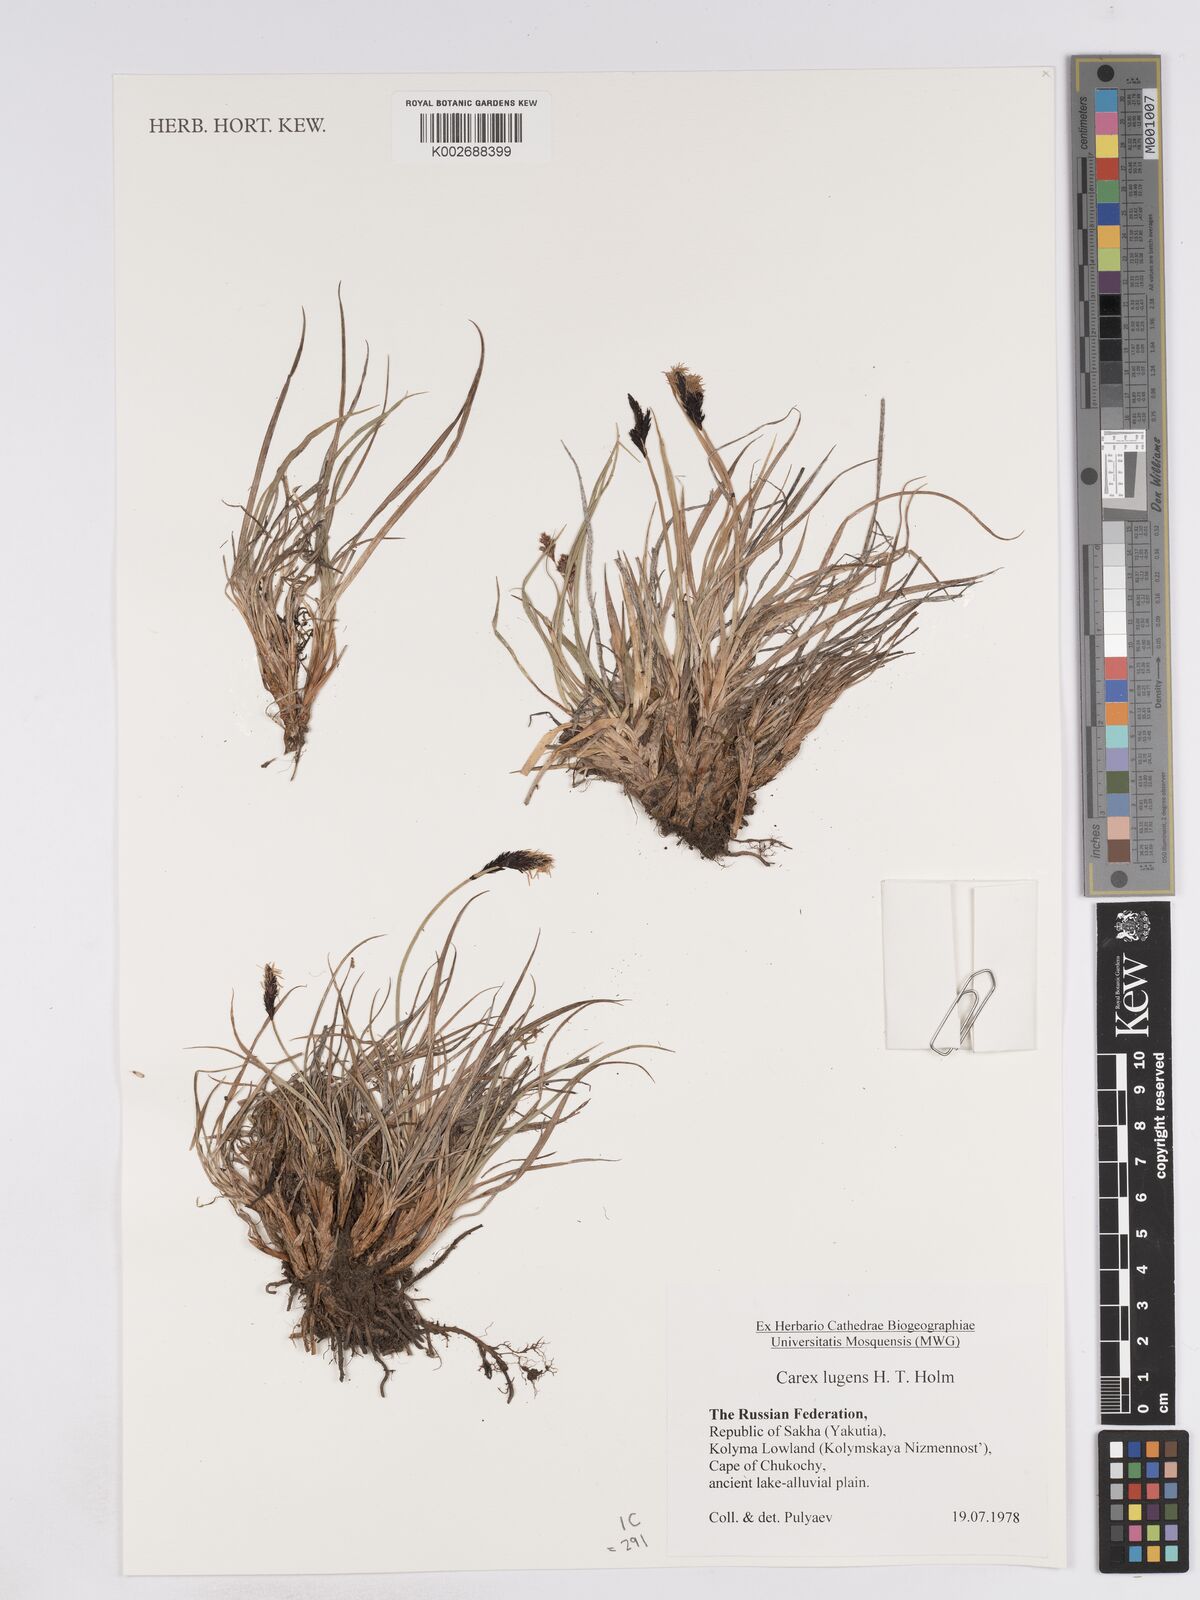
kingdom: Plantae
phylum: Tracheophyta
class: Liliopsida
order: Poales
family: Cyperaceae
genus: Carex
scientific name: Carex bigelowii
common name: Stiff sedge
